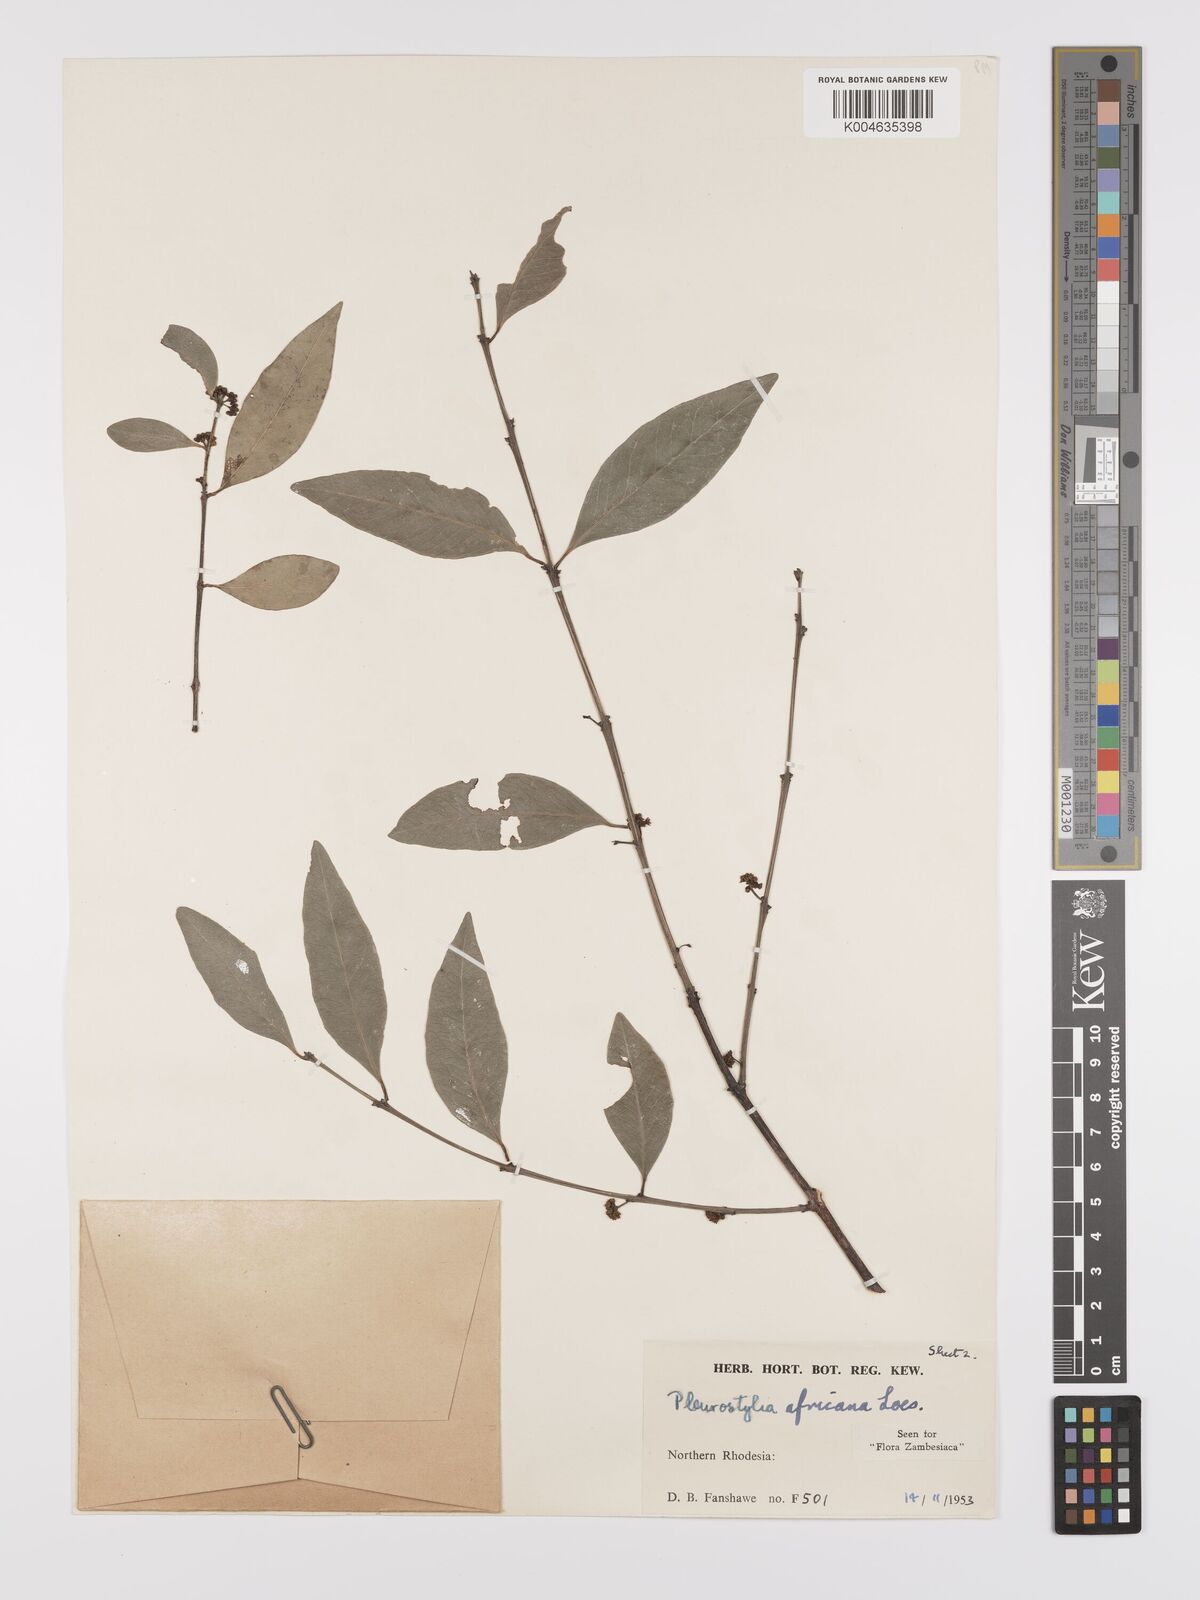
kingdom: Plantae
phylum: Tracheophyta
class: Magnoliopsida
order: Celastrales
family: Celastraceae
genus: Pleurostylia
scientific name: Pleurostylia africana
